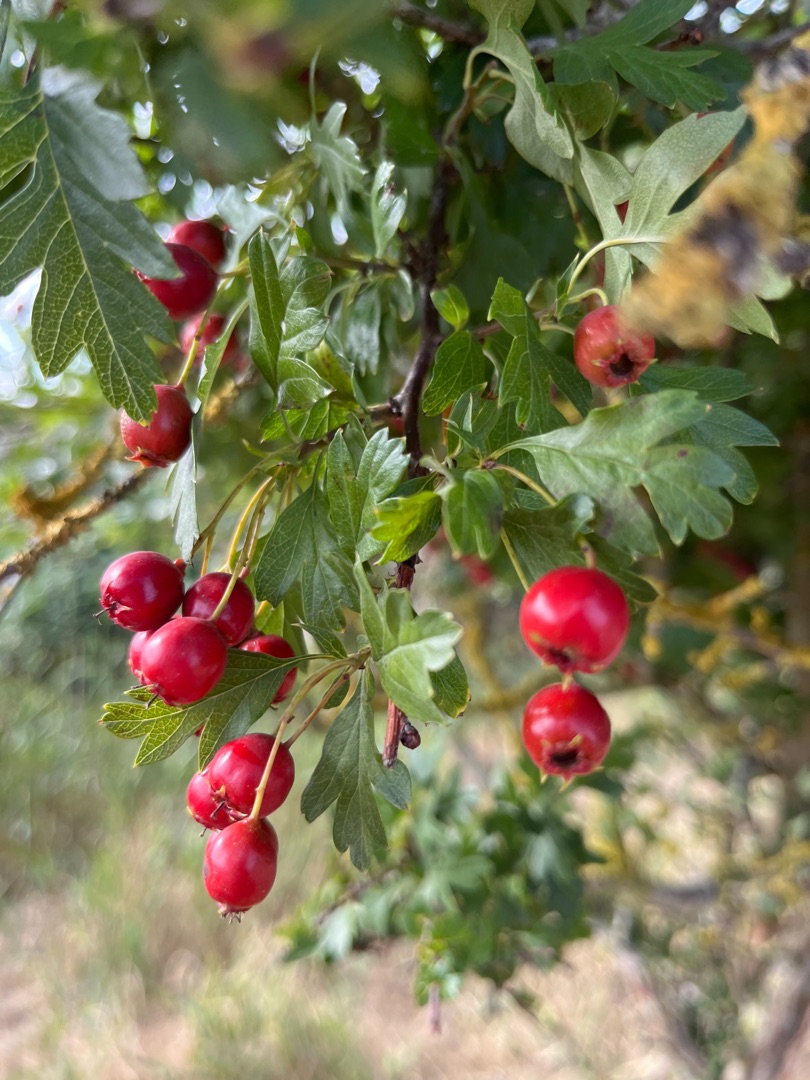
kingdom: Plantae
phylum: Tracheophyta
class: Magnoliopsida
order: Rosales
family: Rosaceae
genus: Crataegus
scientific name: Crataegus media
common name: Almindelig hvidtjørn × engriflet hvidtjørn
